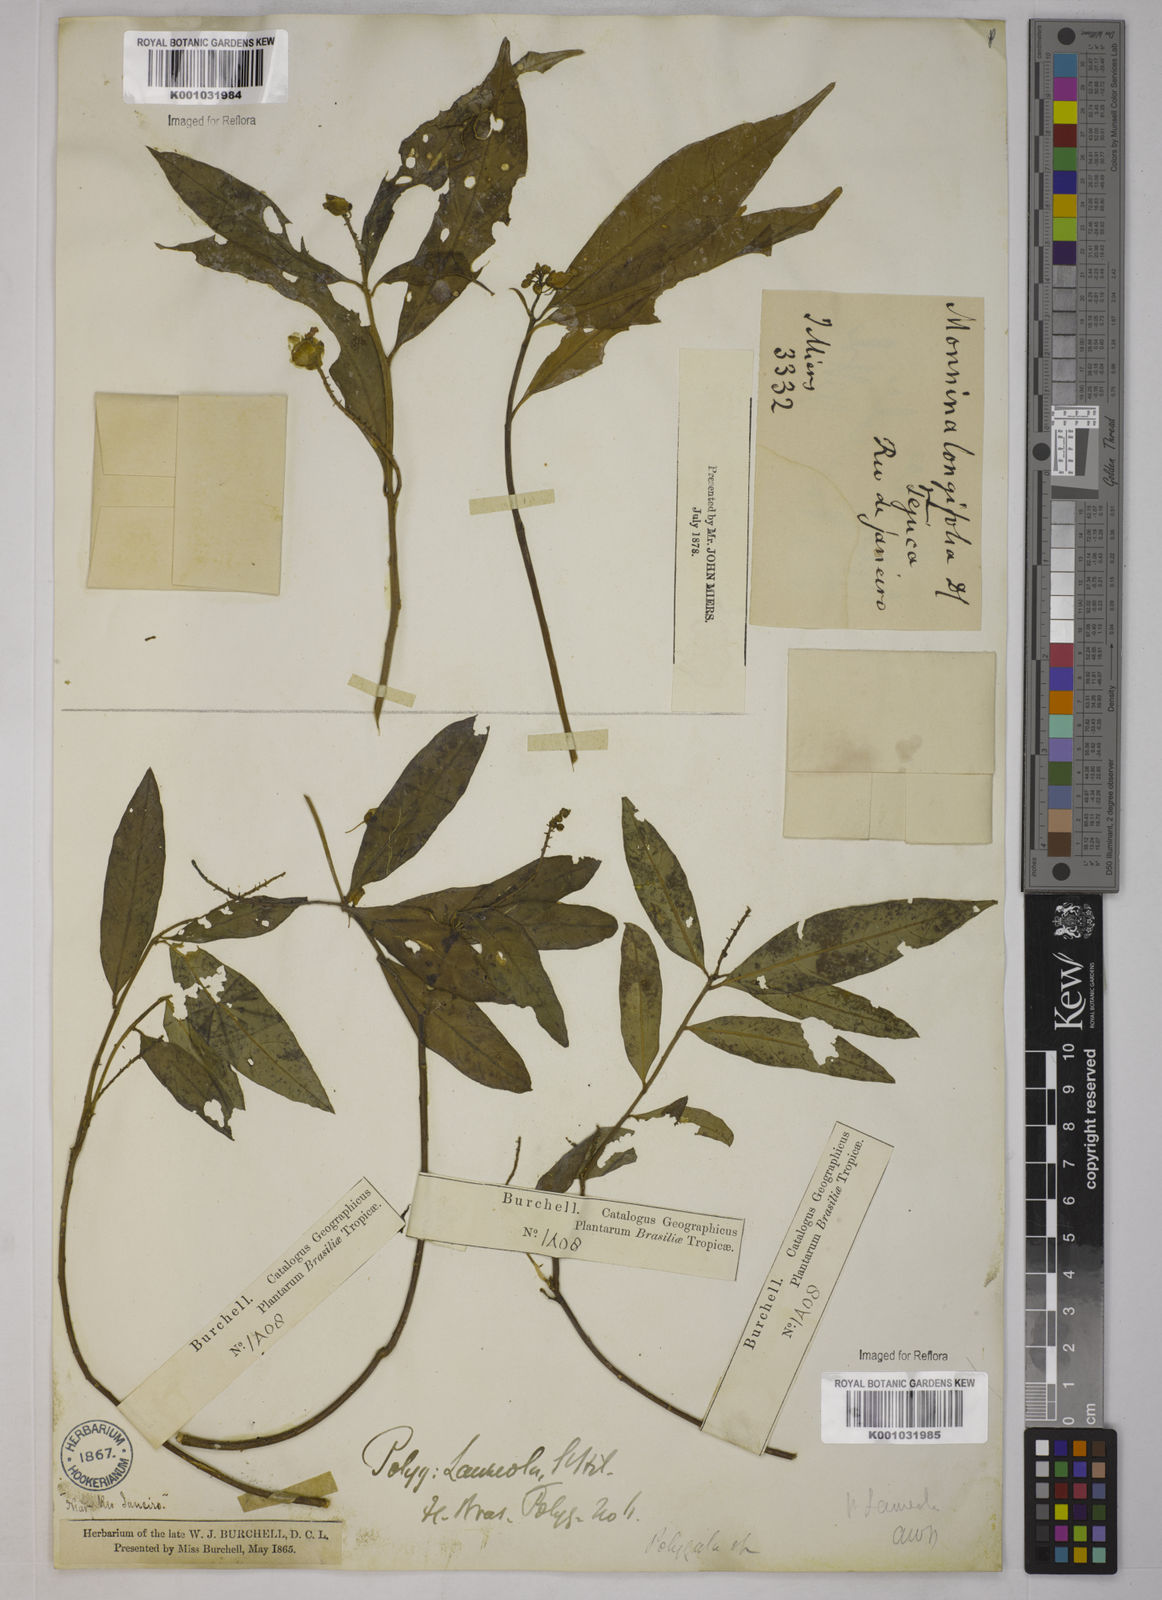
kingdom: Plantae
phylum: Tracheophyta
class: Magnoliopsida
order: Fabales
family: Polygalaceae
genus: Caamembeca
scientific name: Caamembeca salicifolia
